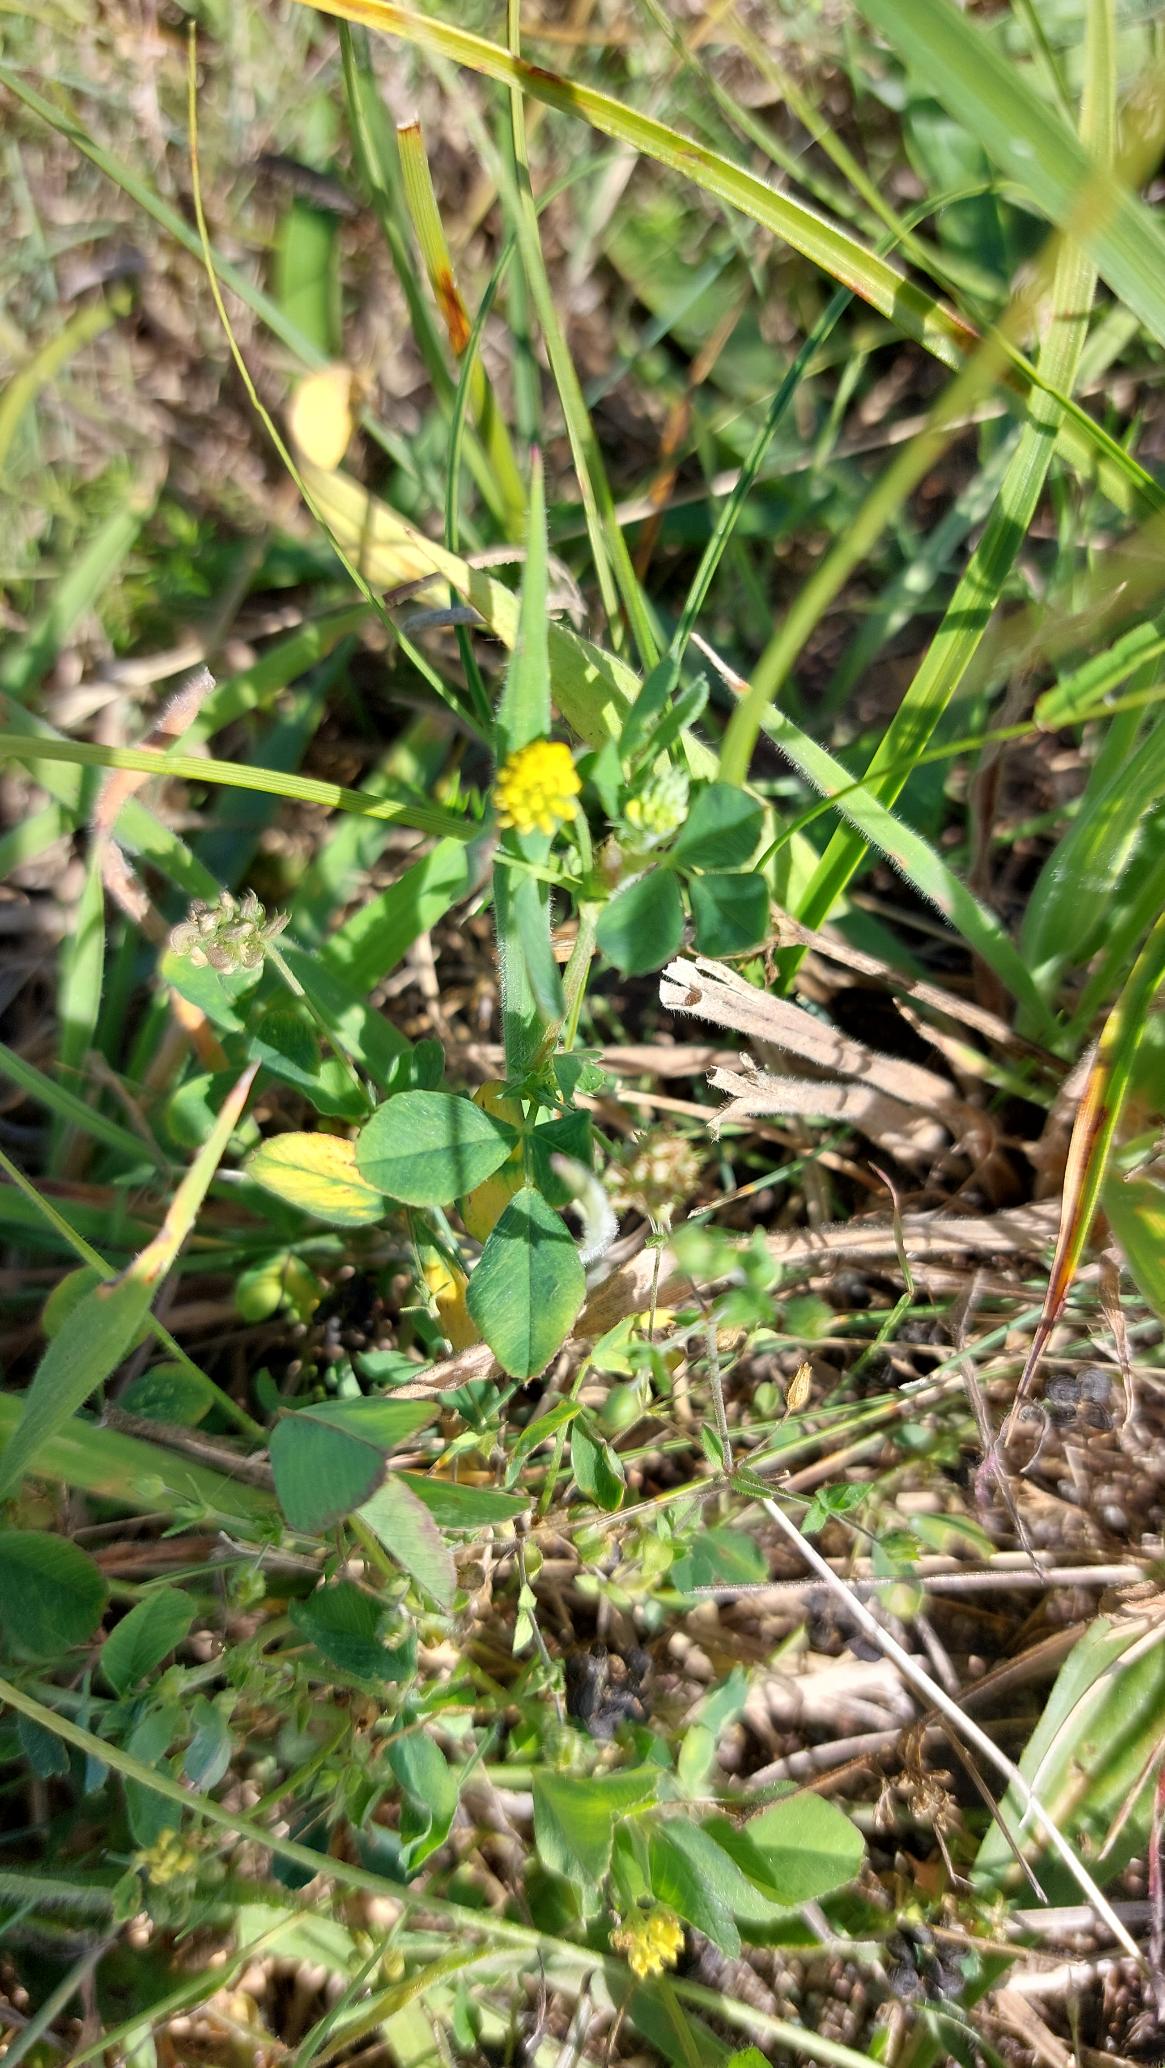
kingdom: Plantae
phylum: Tracheophyta
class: Magnoliopsida
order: Fabales
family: Fabaceae
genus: Medicago
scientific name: Medicago lupulina
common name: Humle-sneglebælg
